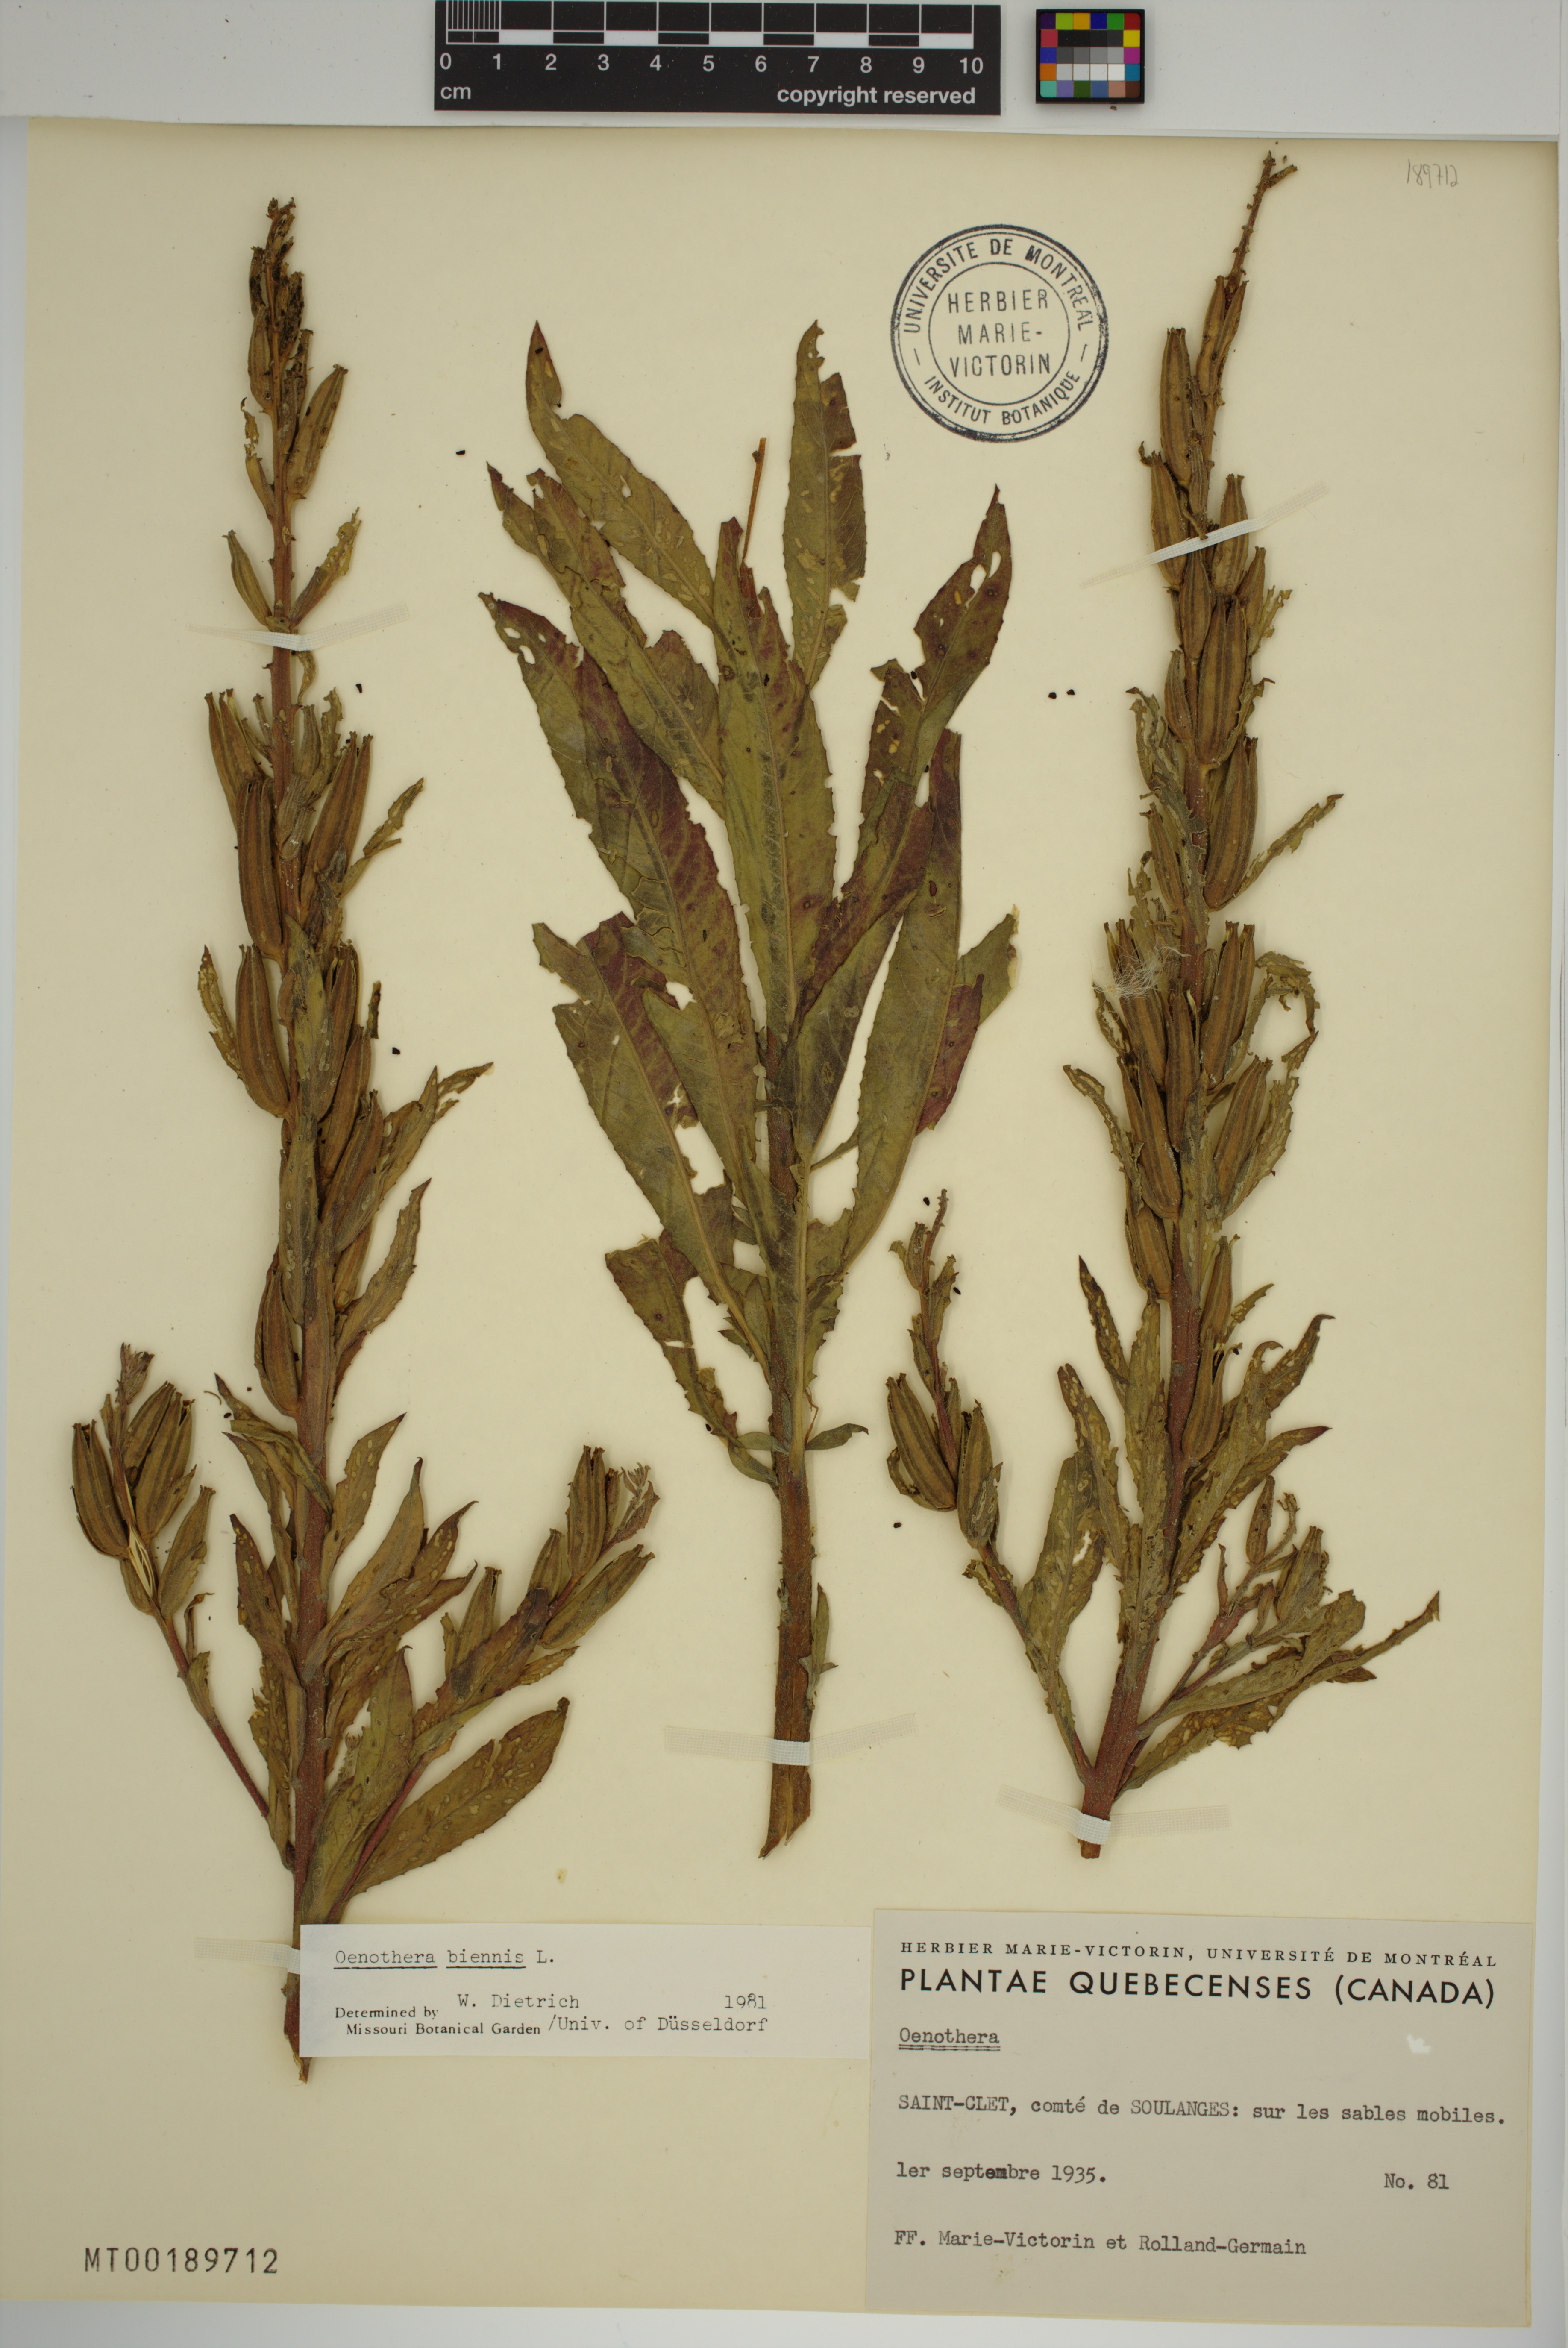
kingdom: Plantae
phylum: Tracheophyta
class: Magnoliopsida
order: Myrtales
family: Onagraceae
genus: Oenothera
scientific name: Oenothera biennis
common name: Common evening-primrose
